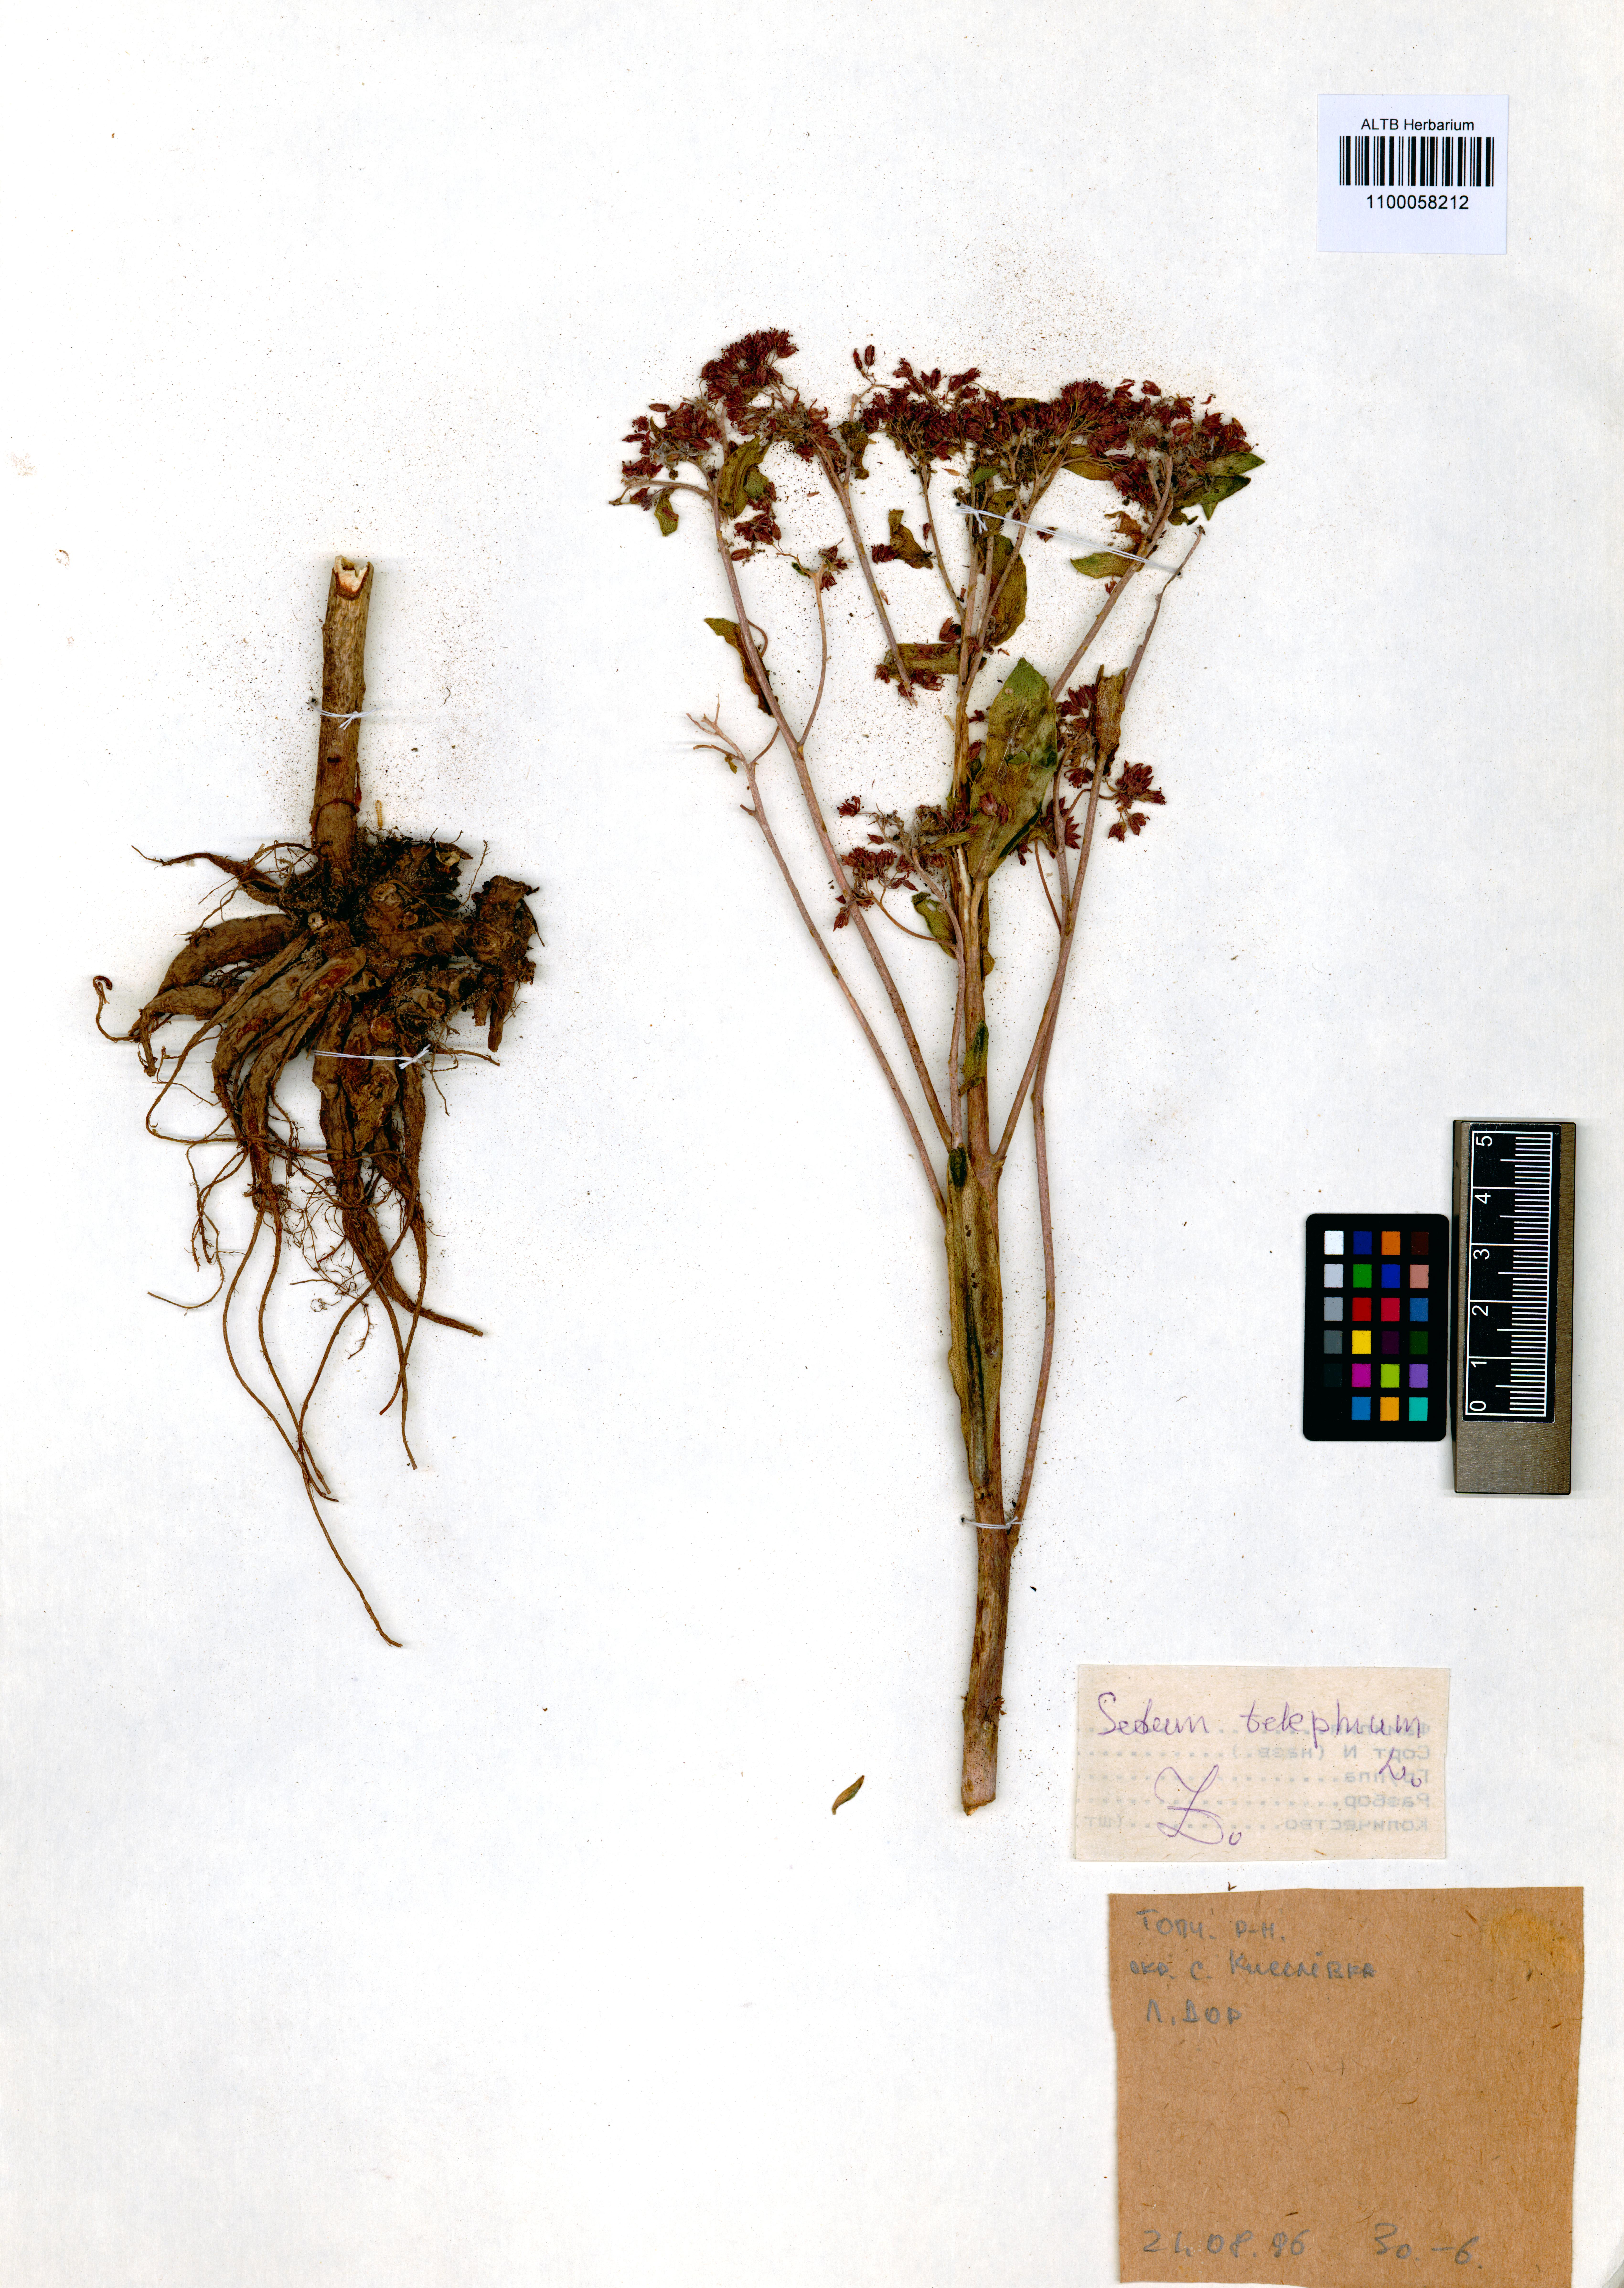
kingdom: Plantae
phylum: Tracheophyta
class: Magnoliopsida
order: Saxifragales
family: Crassulaceae
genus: Hylotelephium
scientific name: Hylotelephium telephium
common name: Live-forever
